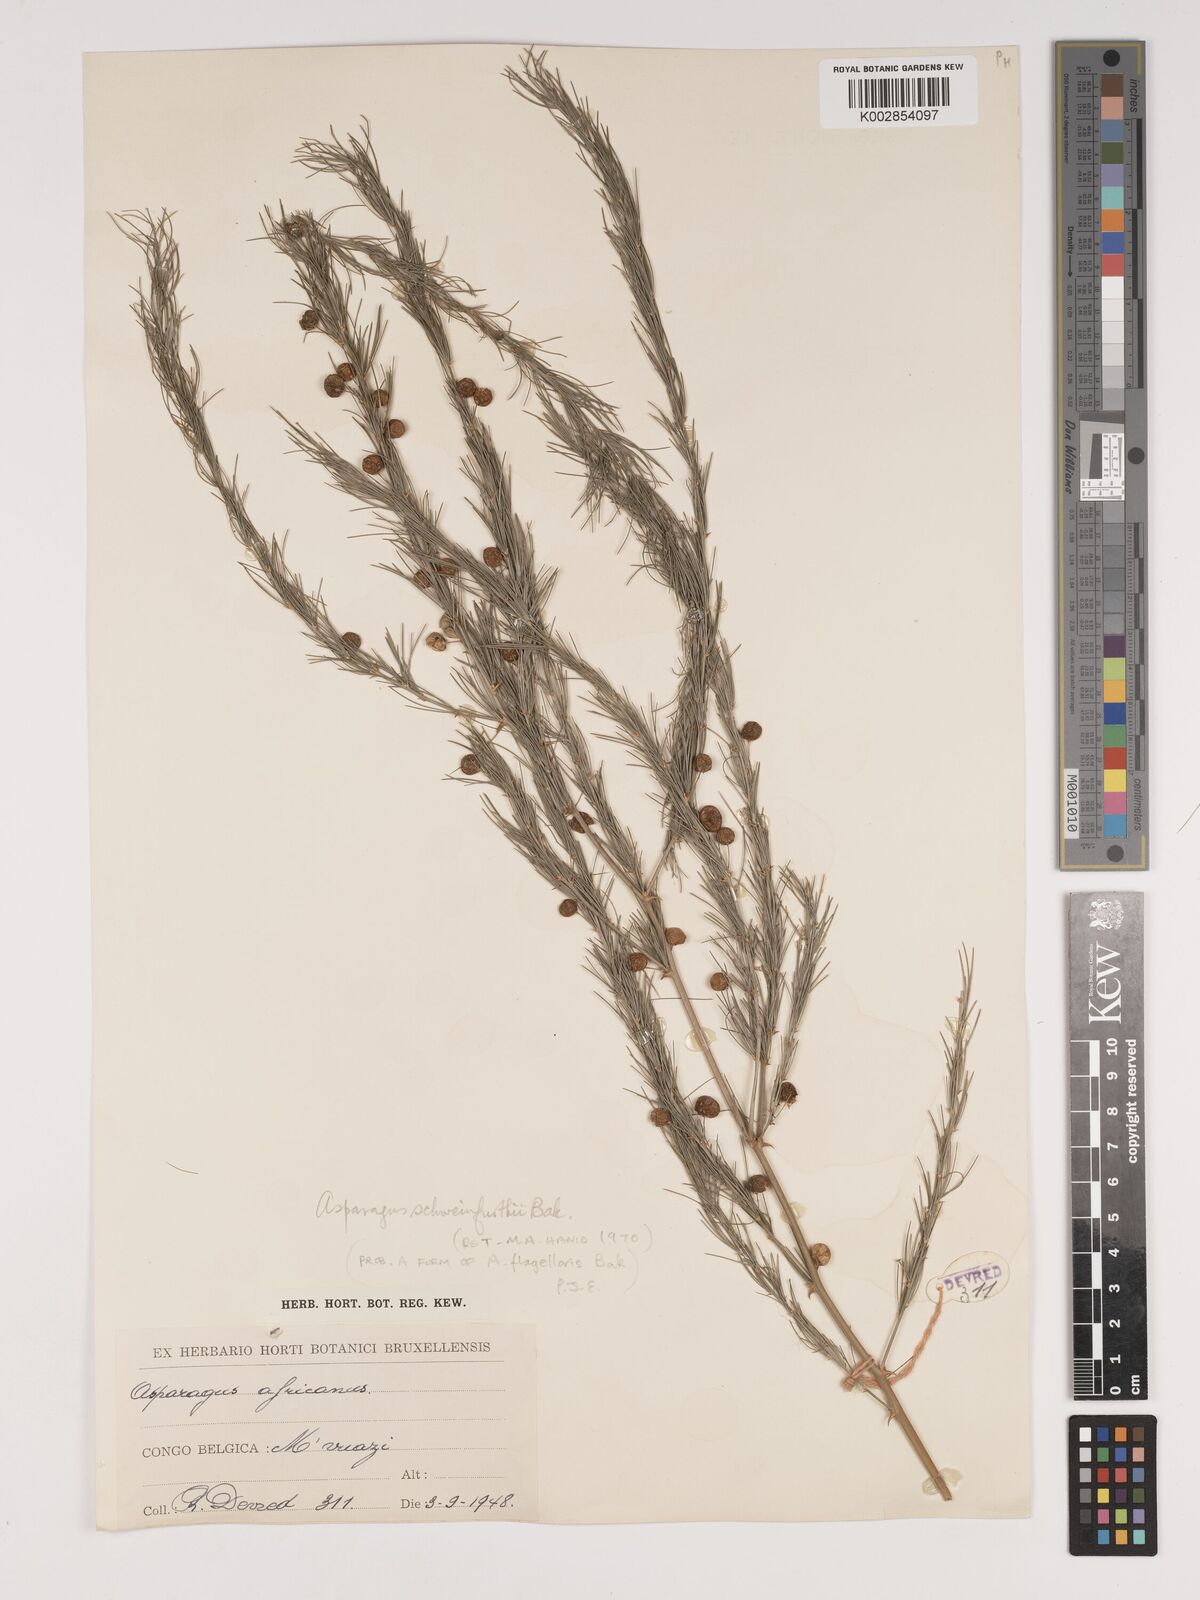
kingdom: Plantae
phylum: Tracheophyta
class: Liliopsida
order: Asparagales
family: Asparagaceae
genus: Asparagus
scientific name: Asparagus flagellaris
